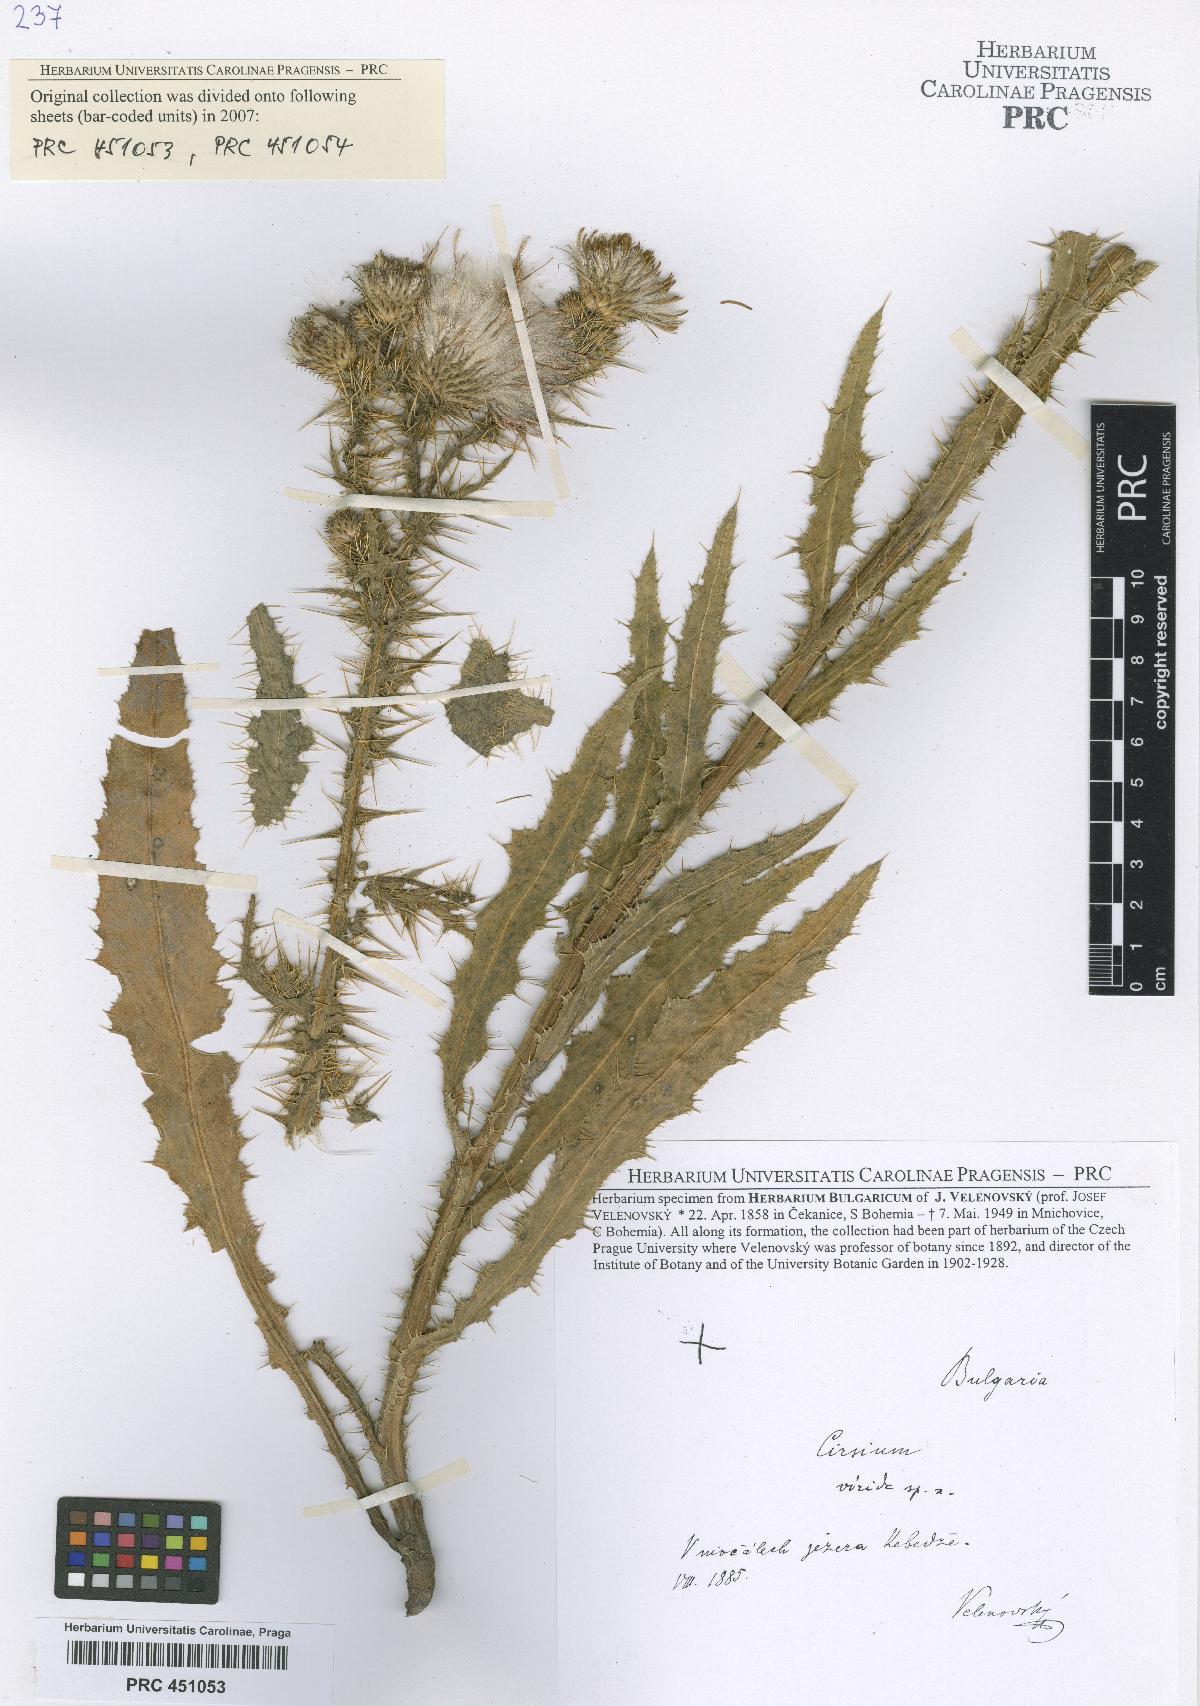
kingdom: Plantae
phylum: Tracheophyta
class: Magnoliopsida
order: Asterales
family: Asteraceae
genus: Cirsium
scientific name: Cirsium alatum
